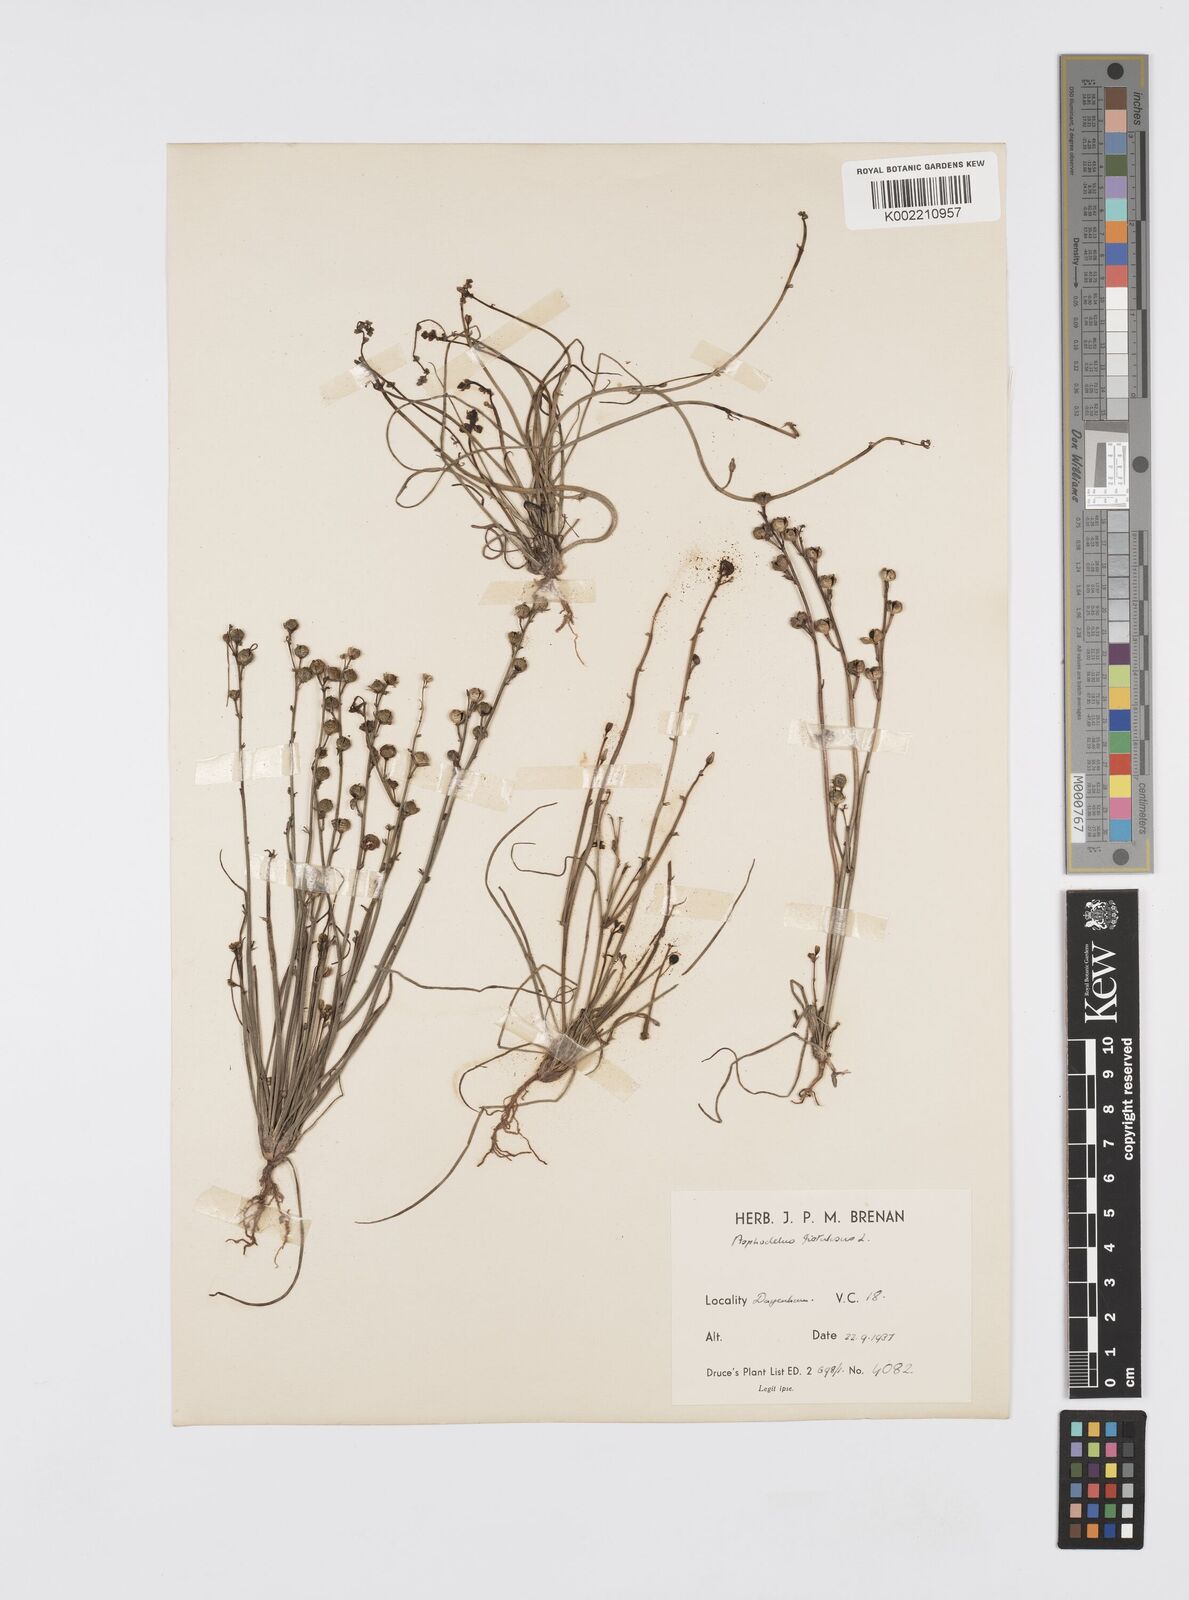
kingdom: Plantae
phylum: Tracheophyta
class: Liliopsida
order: Asparagales
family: Asphodelaceae
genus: Asphodelus
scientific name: Asphodelus fistulosus
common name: Onionweed
